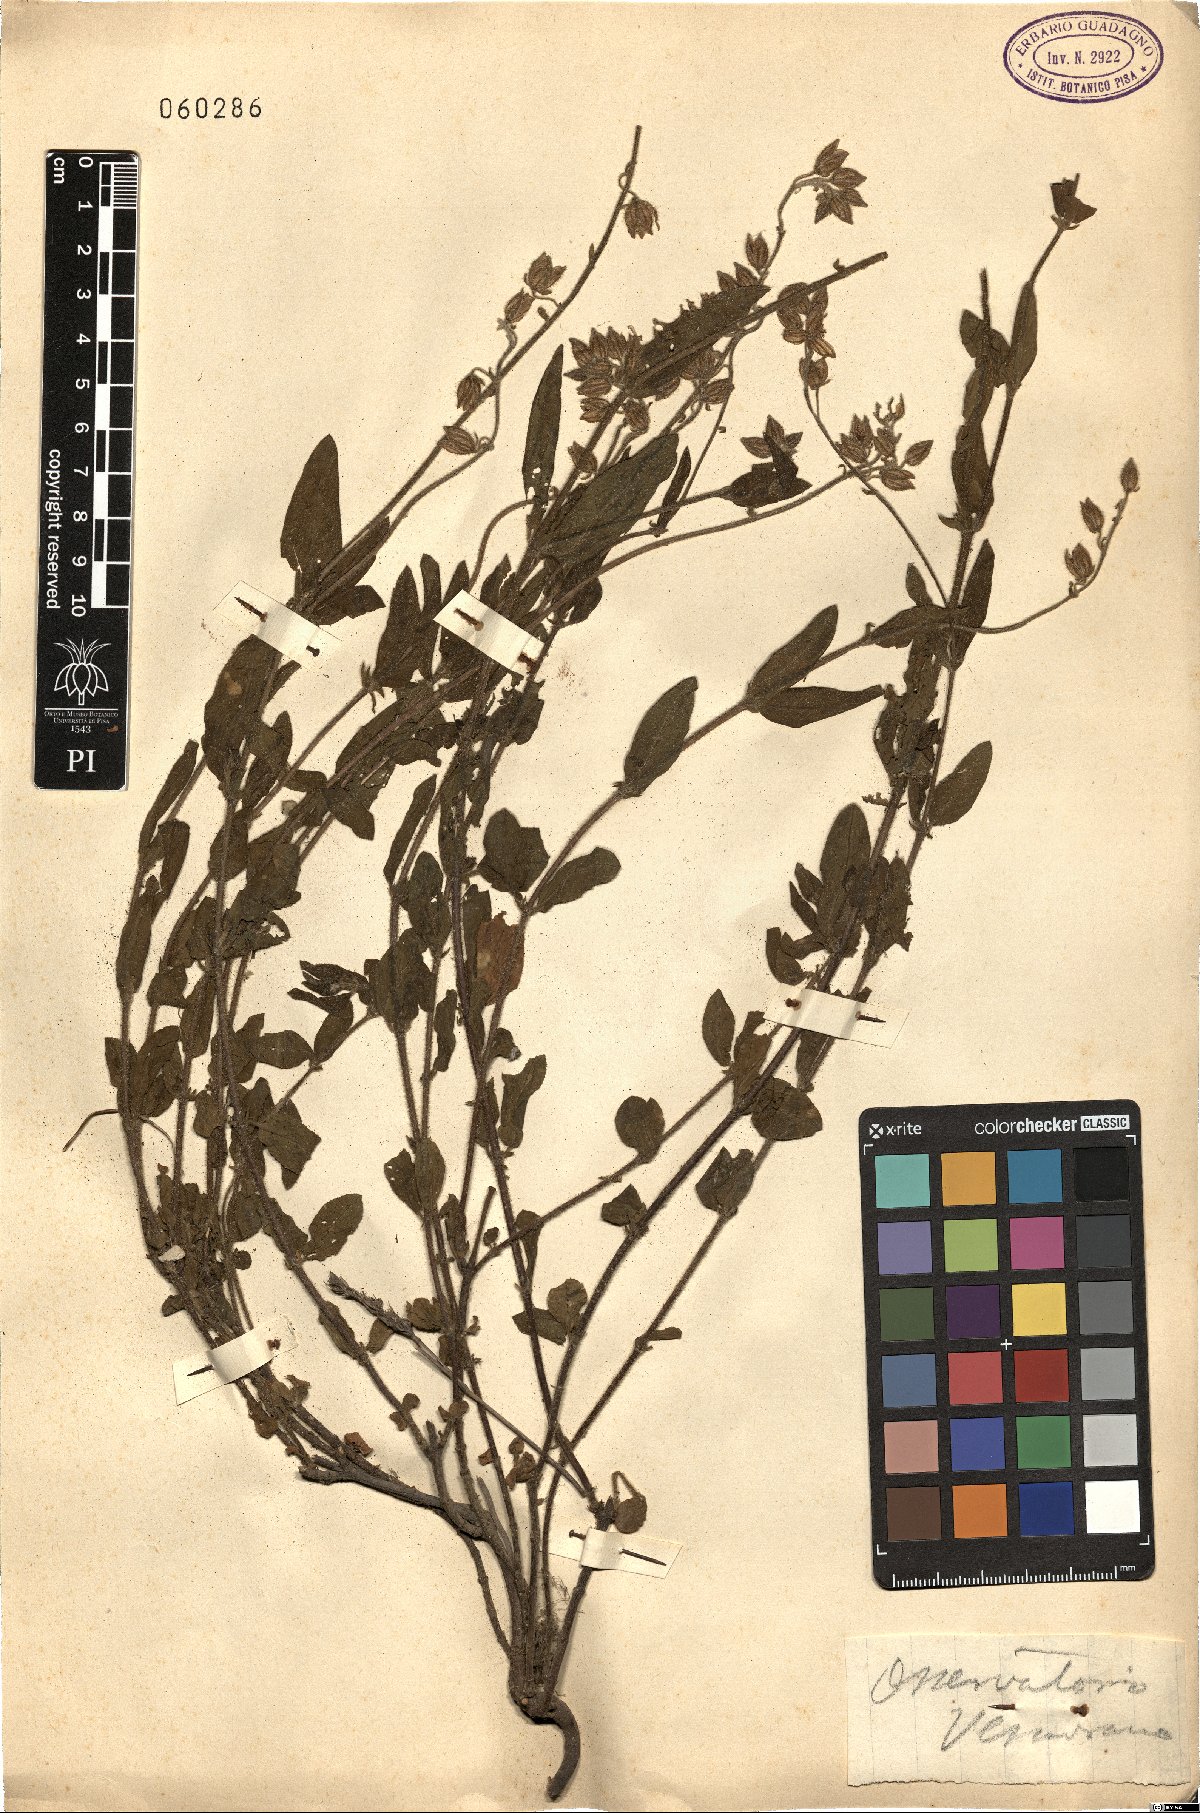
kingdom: Plantae
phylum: Tracheophyta
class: Magnoliopsida
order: Malvales
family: Cistaceae
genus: Helianthemum
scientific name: Helianthemum
